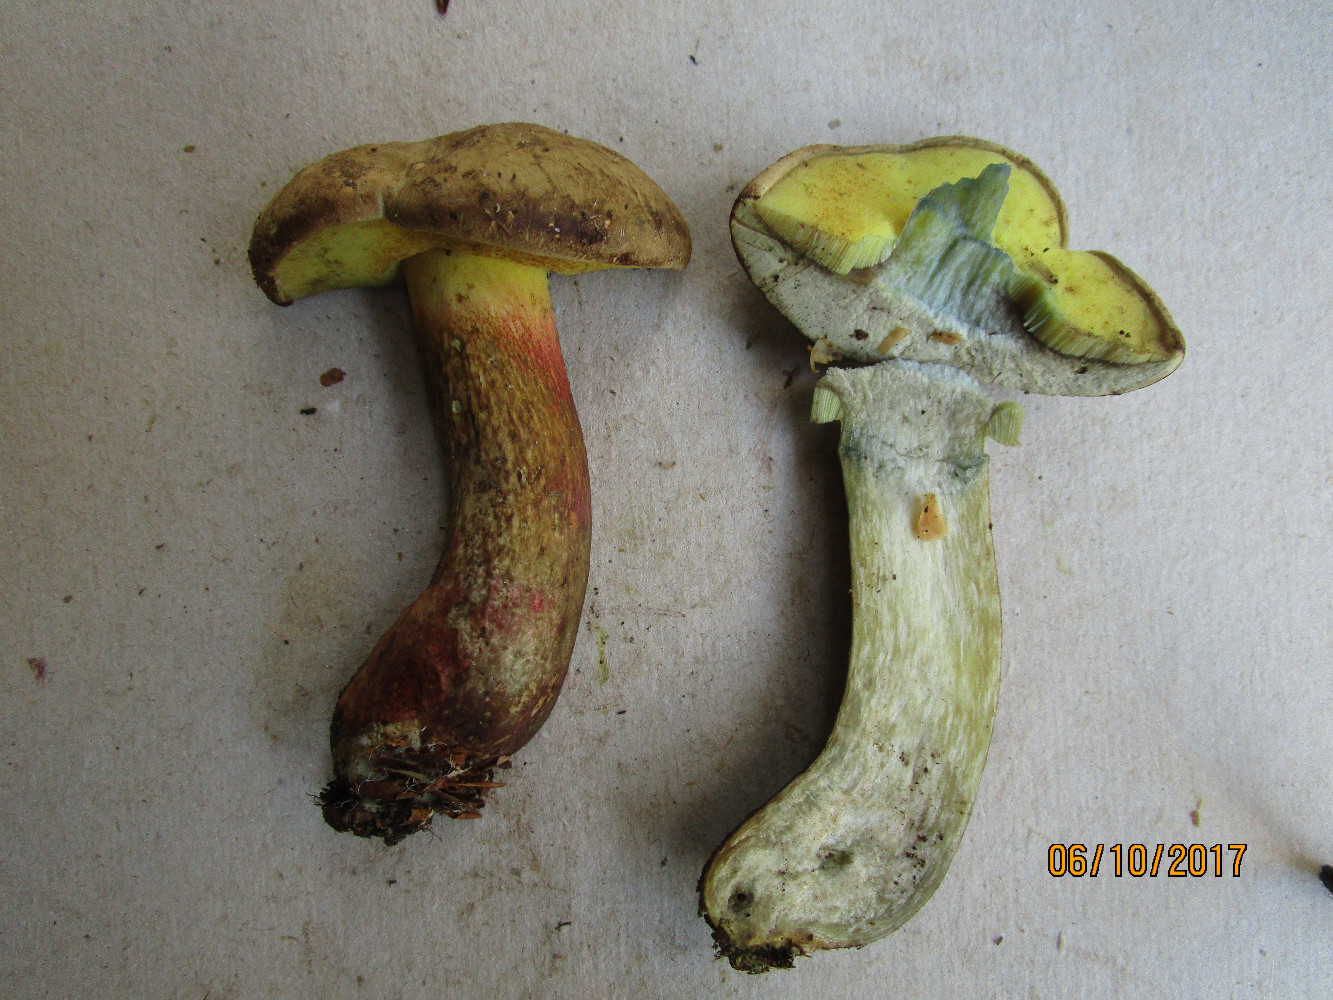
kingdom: Fungi
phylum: Basidiomycota
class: Agaricomycetes
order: Boletales
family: Boletaceae
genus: Caloboletus
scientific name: Caloboletus calopus
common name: skønfodet rørhat
